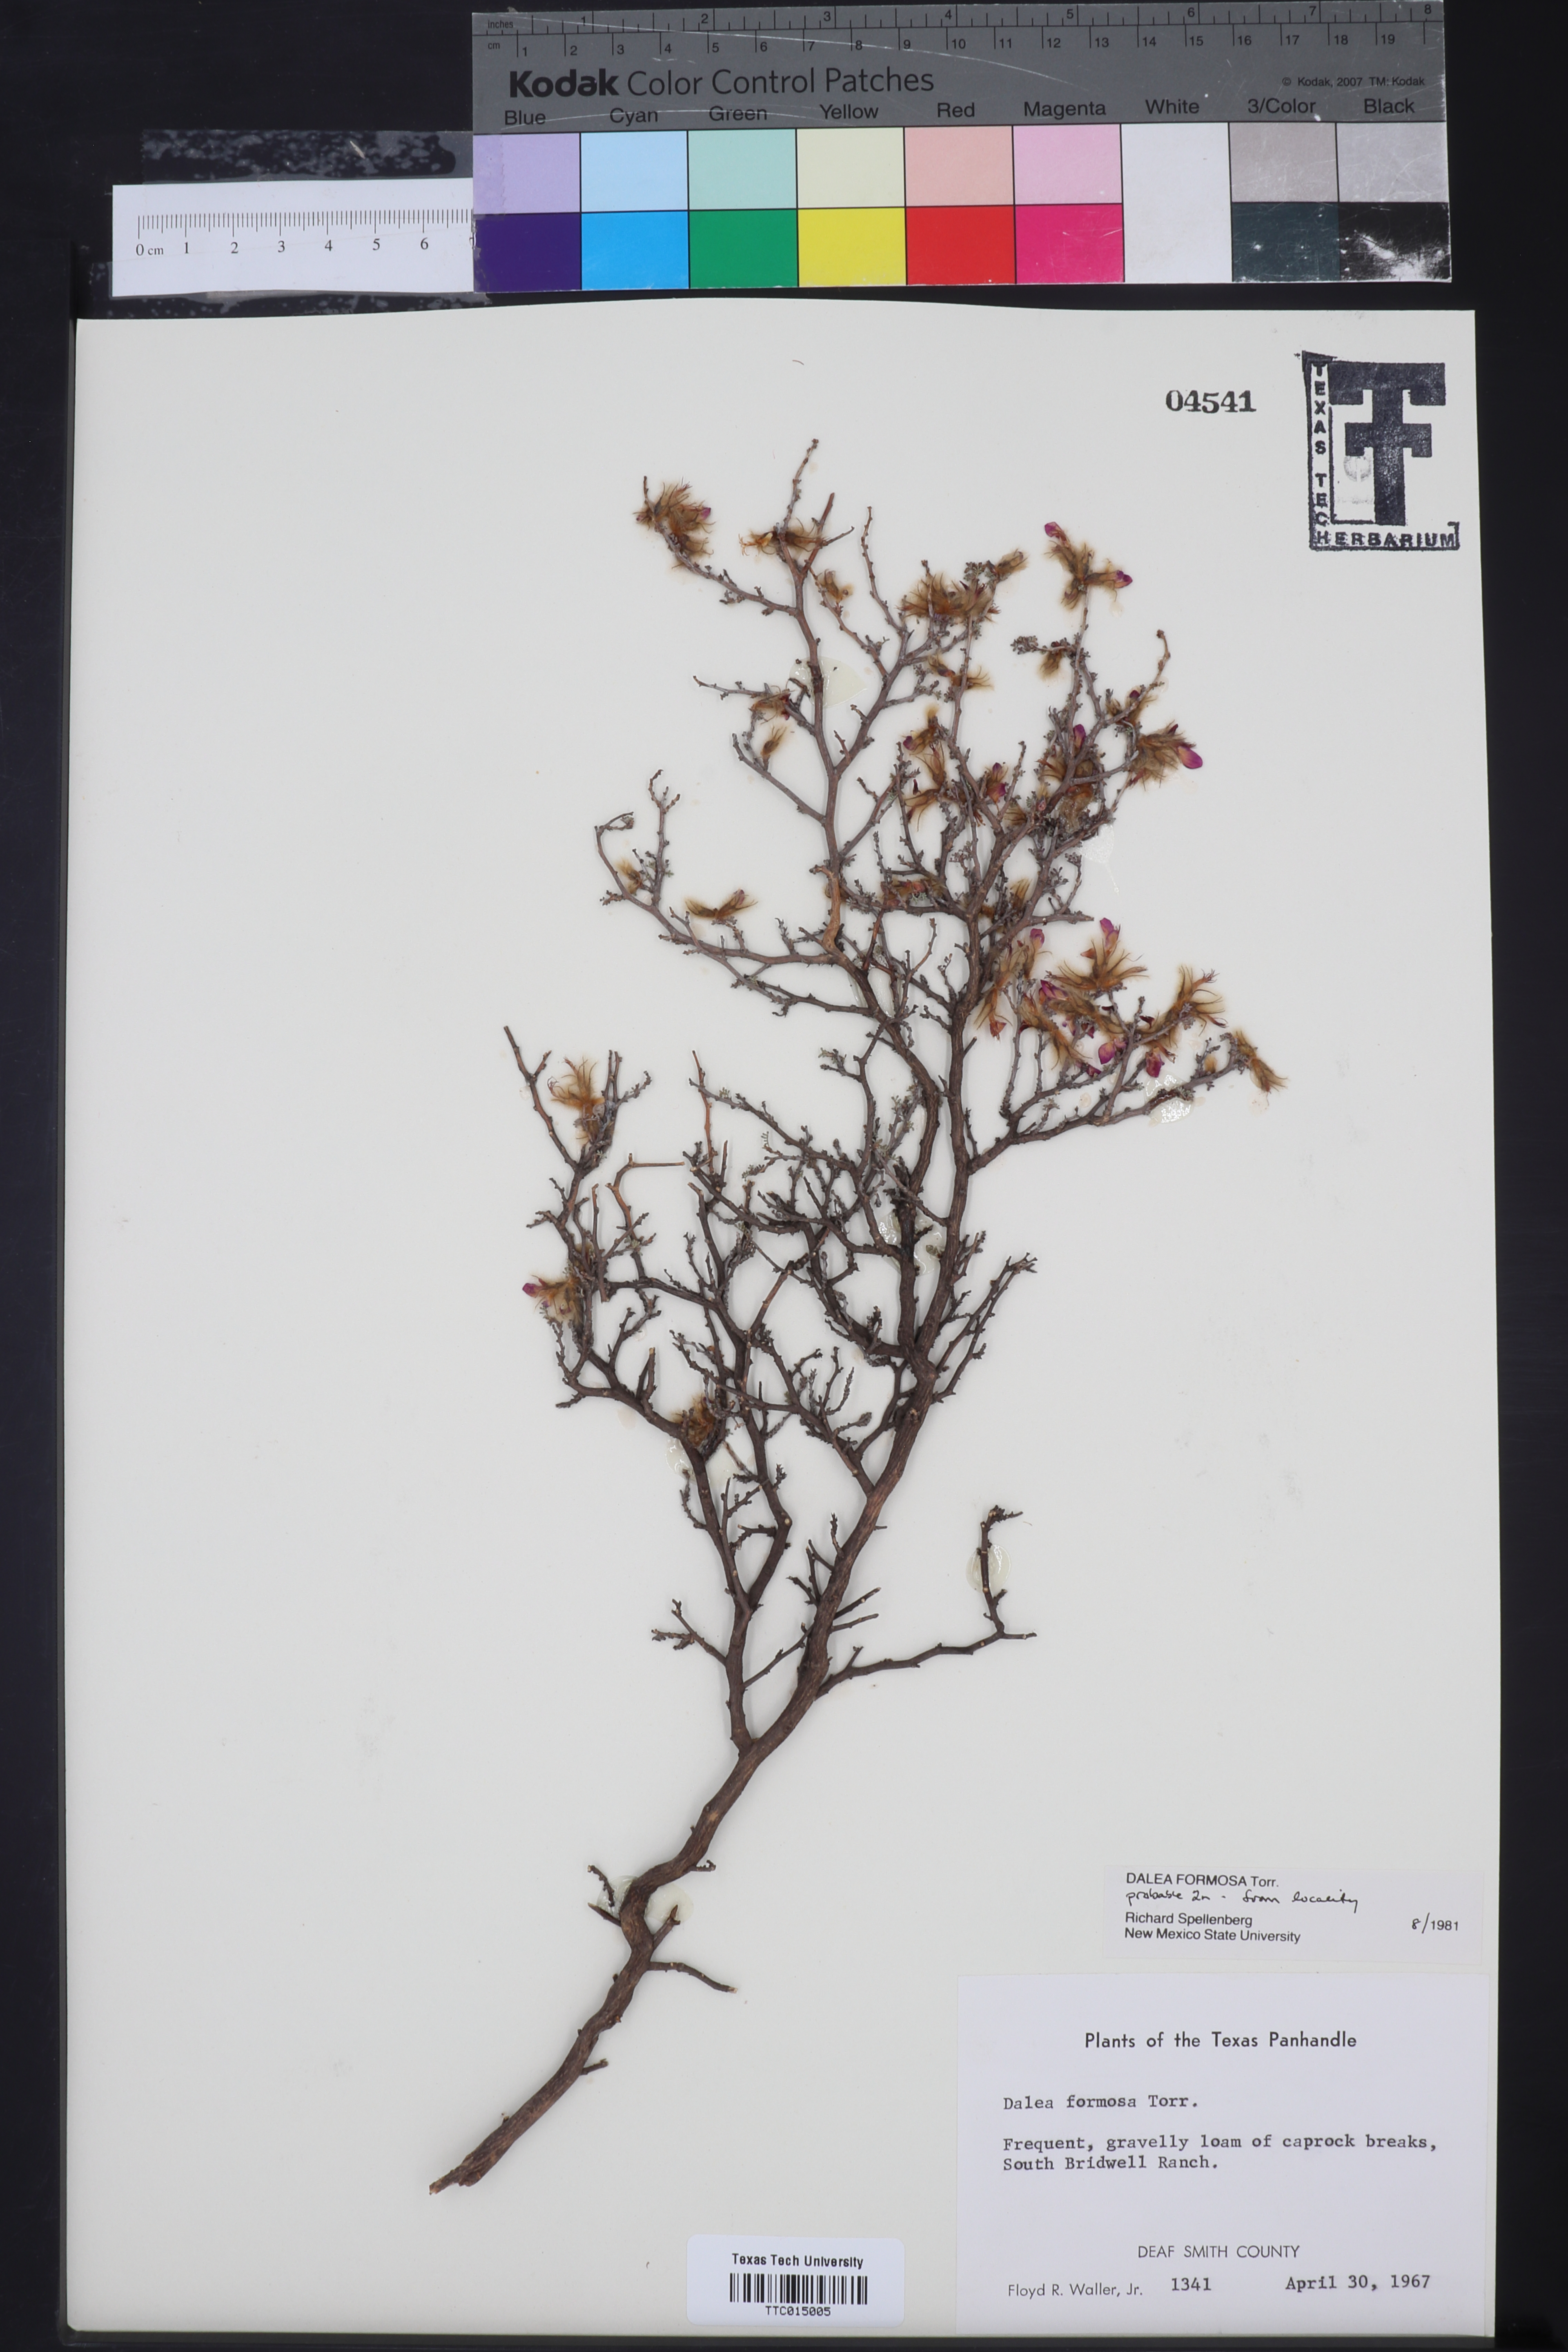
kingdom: Plantae
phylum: Tracheophyta
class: Magnoliopsida
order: Fabales
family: Fabaceae
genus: Dalea
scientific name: Dalea formosa
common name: Feather-plume dalea
